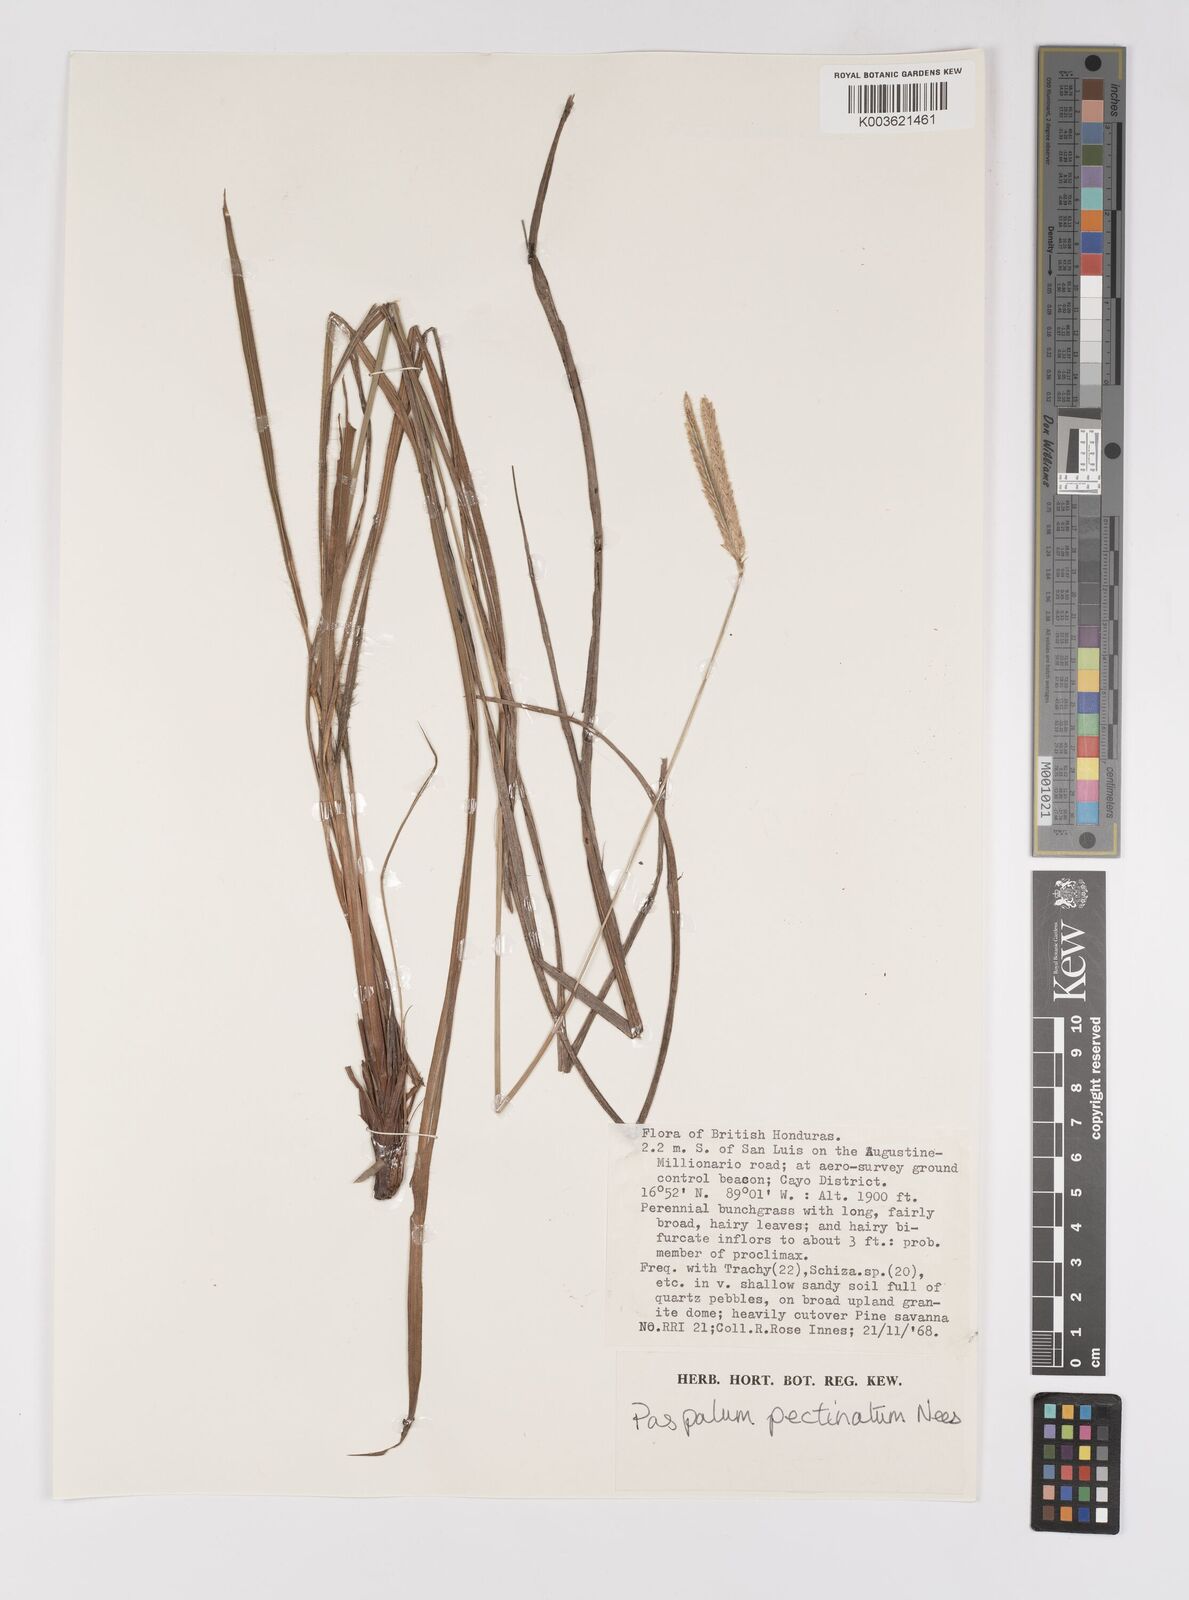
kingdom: Plantae
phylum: Tracheophyta
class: Liliopsida
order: Poales
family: Poaceae
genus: Paspalum
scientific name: Paspalum pectinatum
